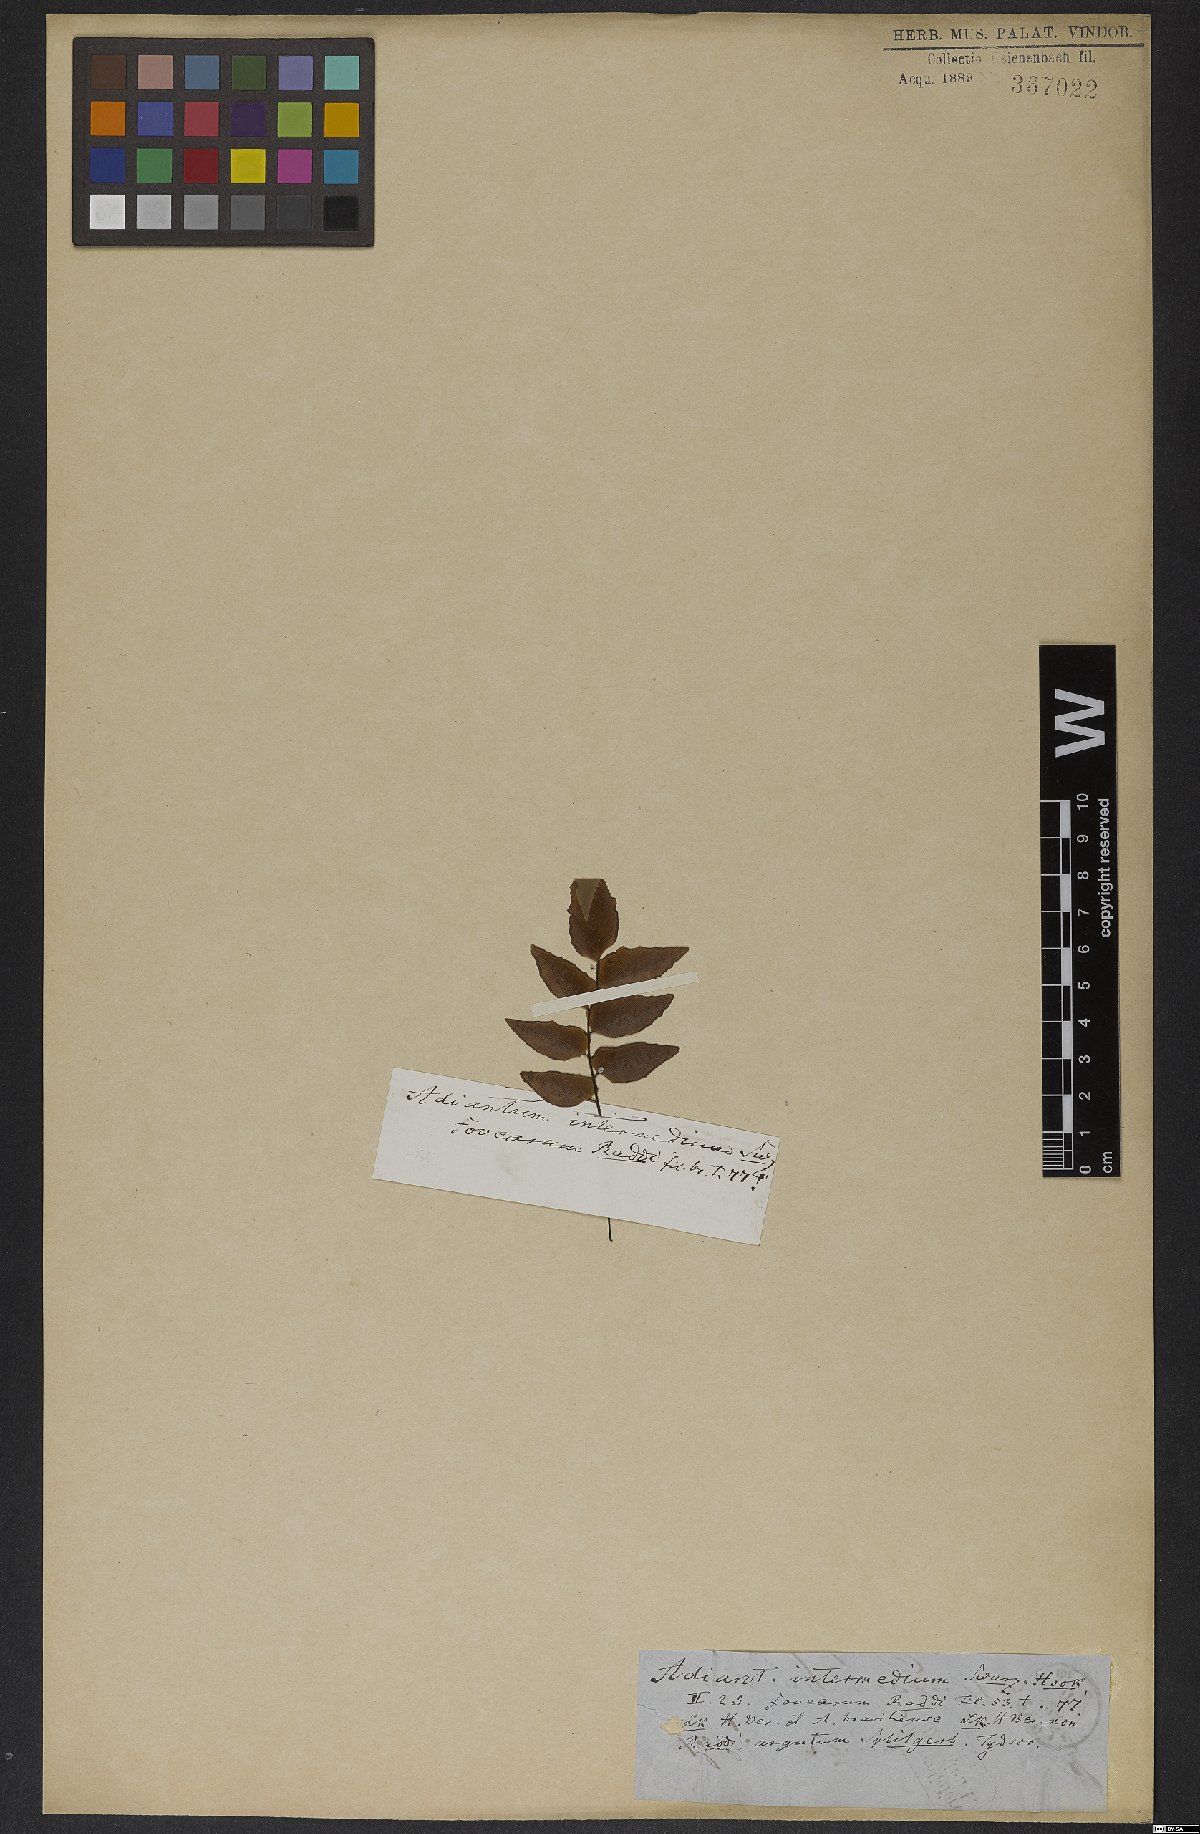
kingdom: Plantae
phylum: Tracheophyta
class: Polypodiopsida
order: Polypodiales
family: Pteridaceae
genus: Adiantum
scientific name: Adiantum latifolium
